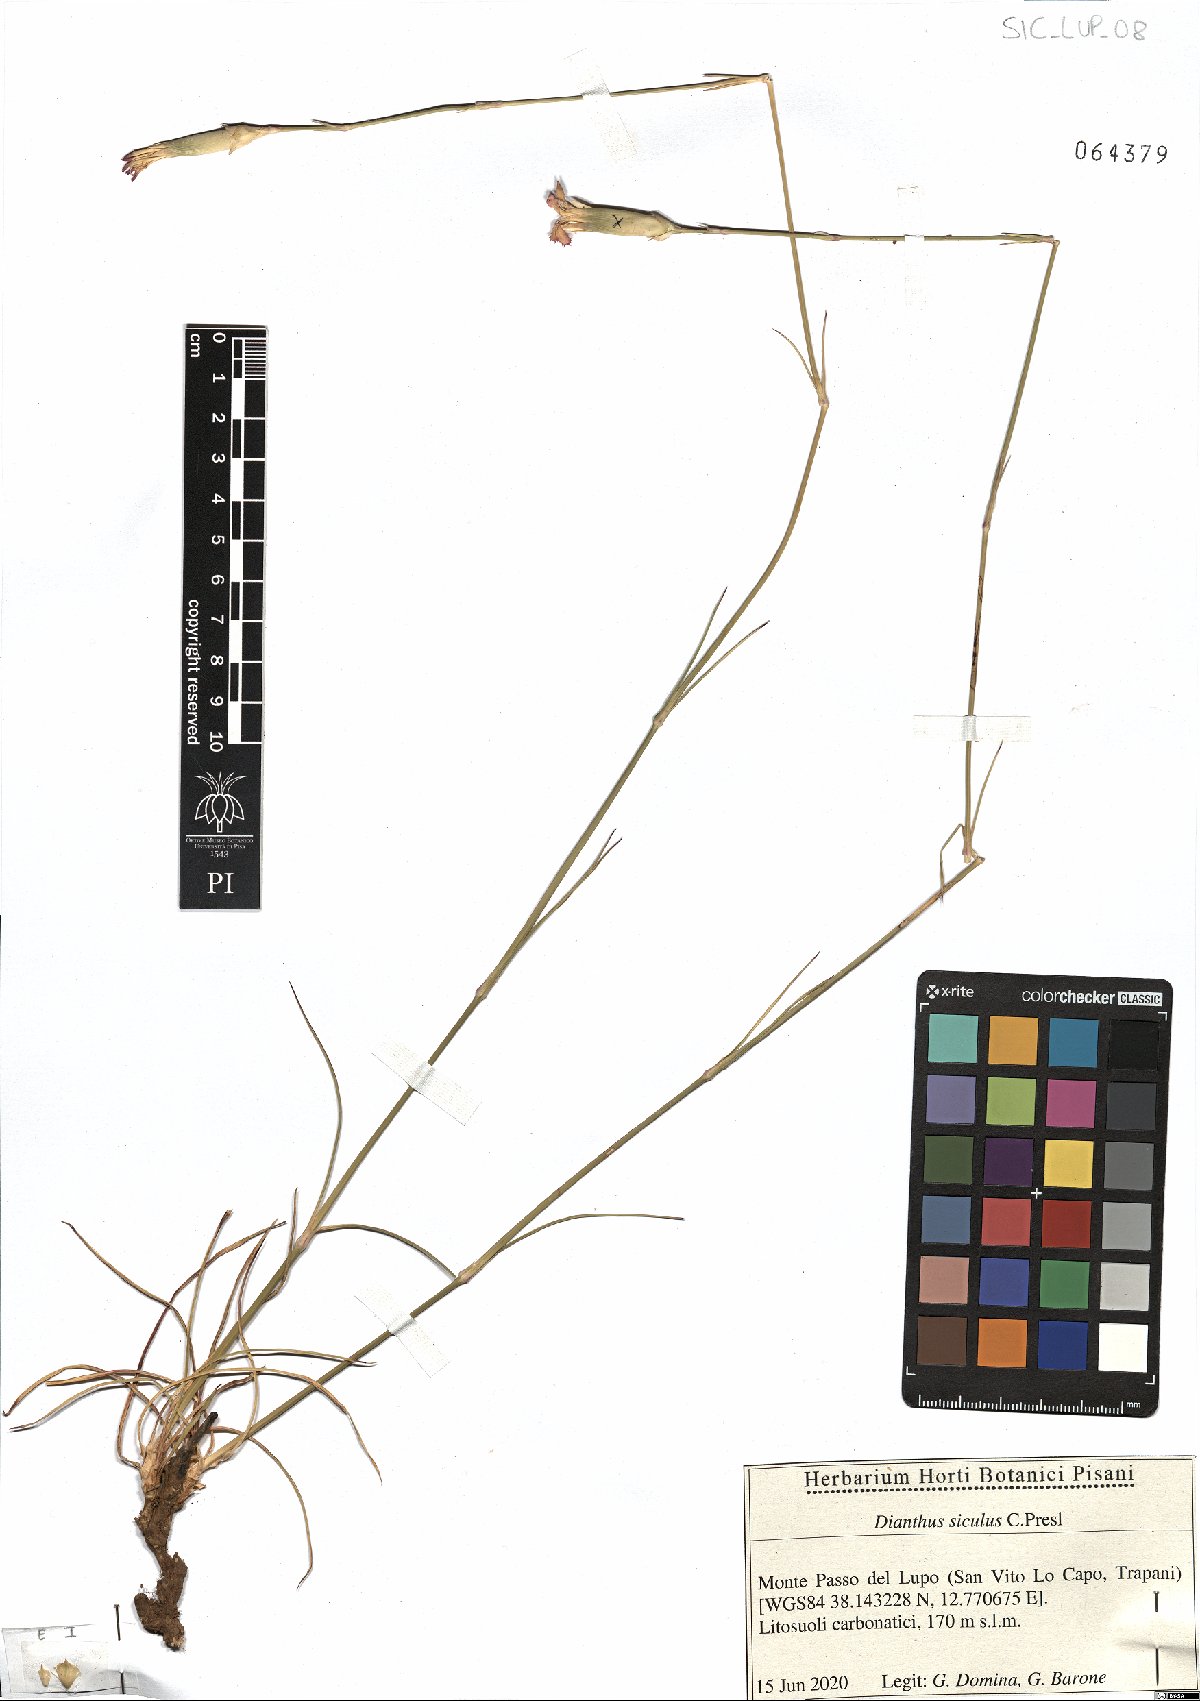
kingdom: Plantae
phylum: Tracheophyta
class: Magnoliopsida
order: Caryophyllales
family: Caryophyllaceae
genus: Dianthus
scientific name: Dianthus siculus
